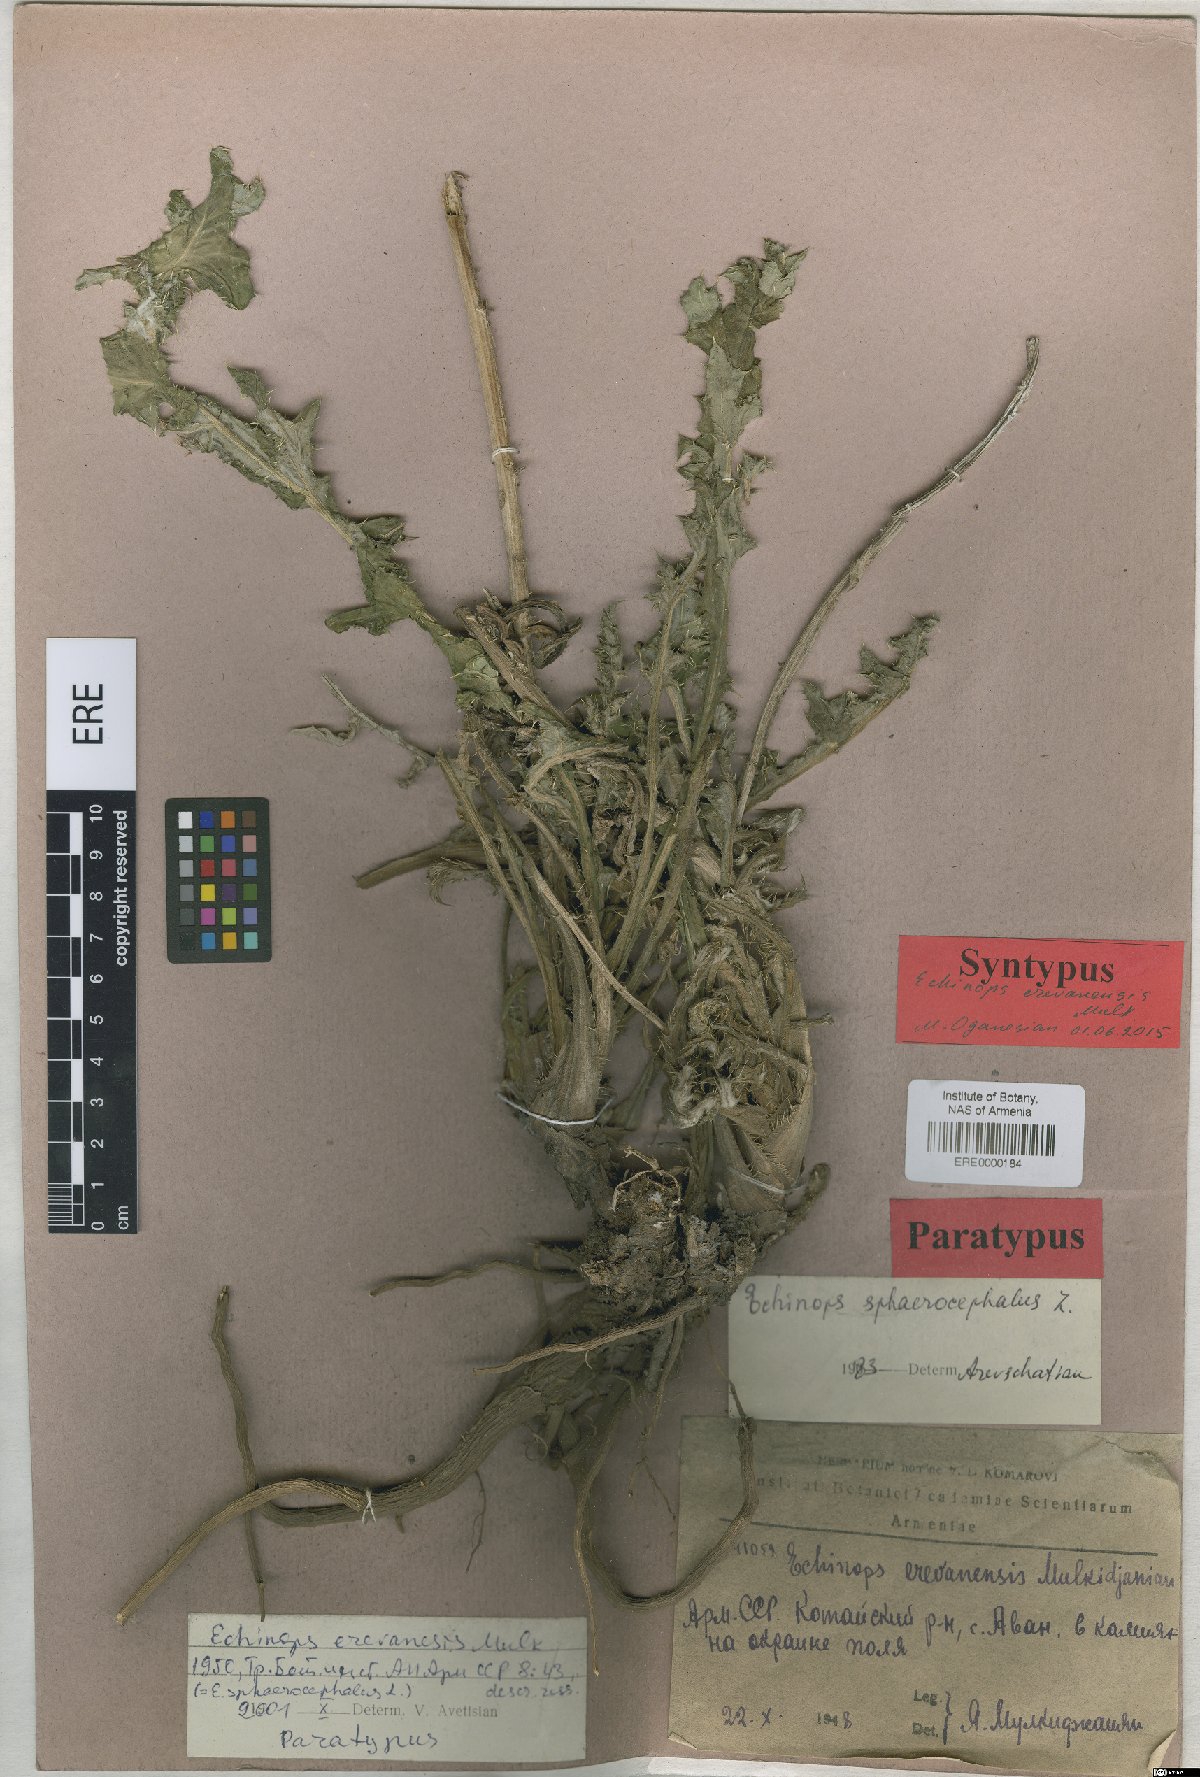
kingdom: Plantae
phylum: Tracheophyta
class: Magnoliopsida
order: Asterales
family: Asteraceae
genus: Echinops
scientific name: Echinops sphaerocephalus
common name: Glandular globe-thistle
